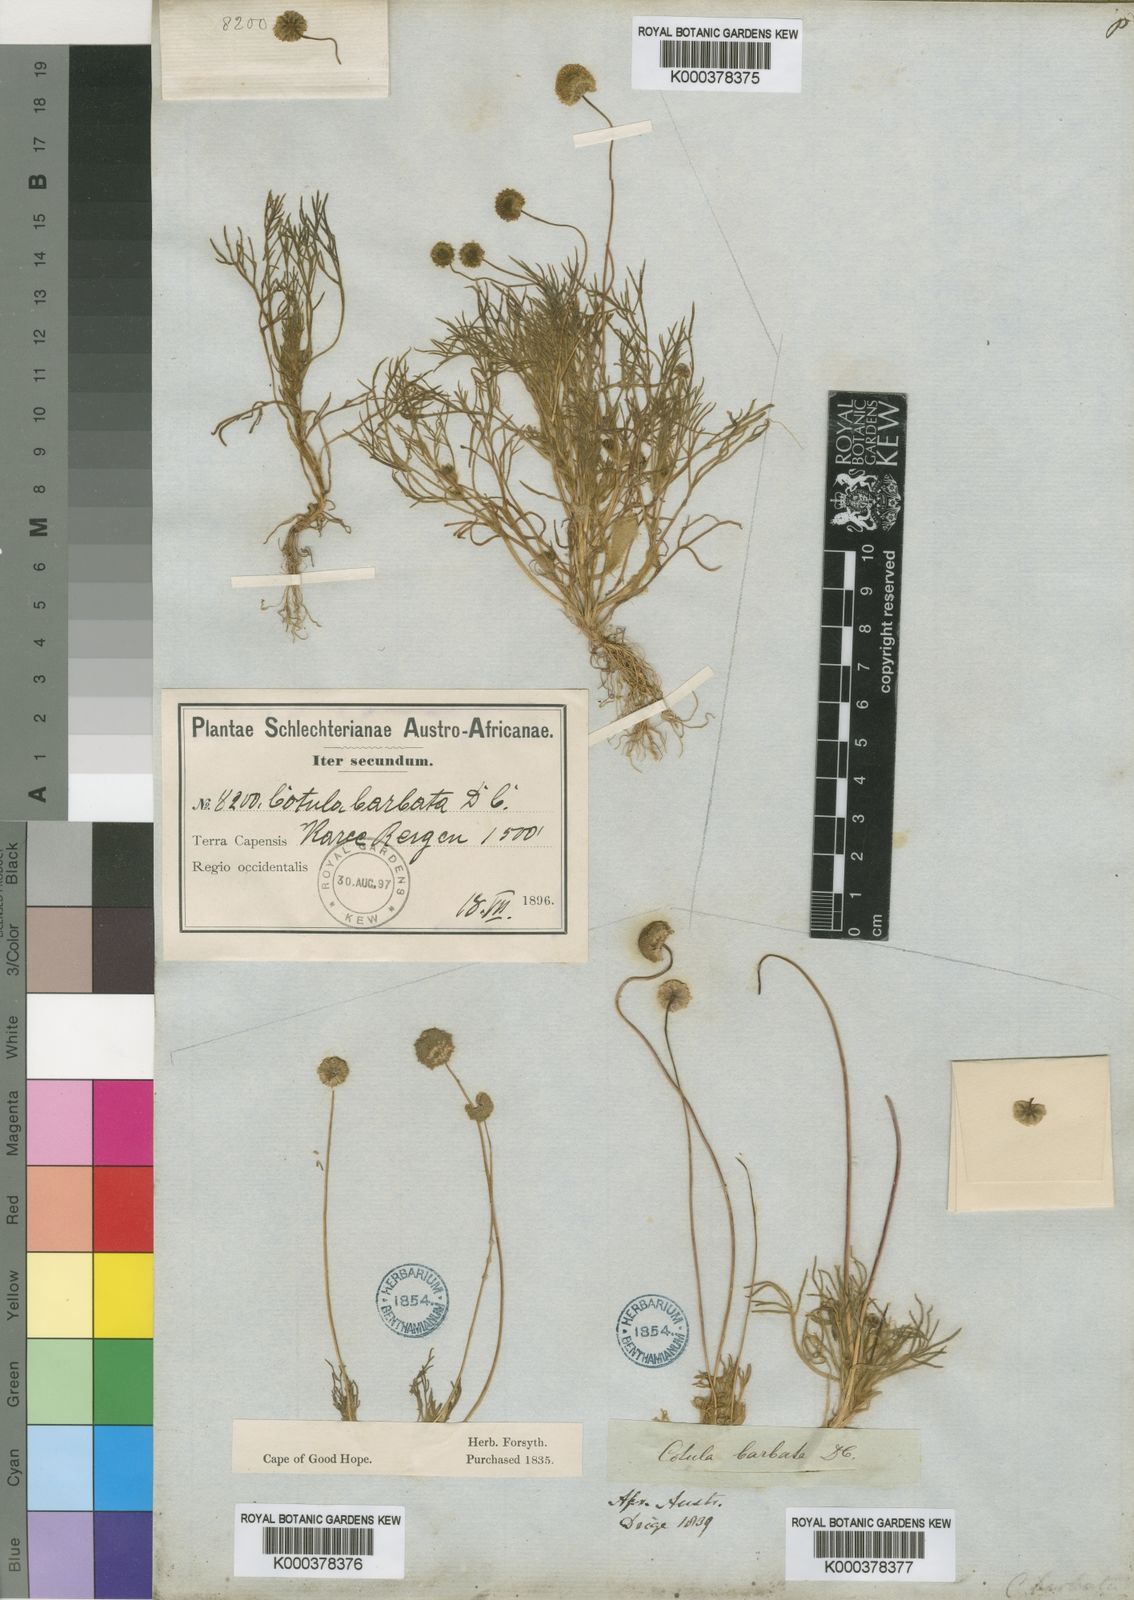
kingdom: Plantae
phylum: Tracheophyta
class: Magnoliopsida
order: Asterales
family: Asteraceae
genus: Cotula
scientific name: Cotula barbata
